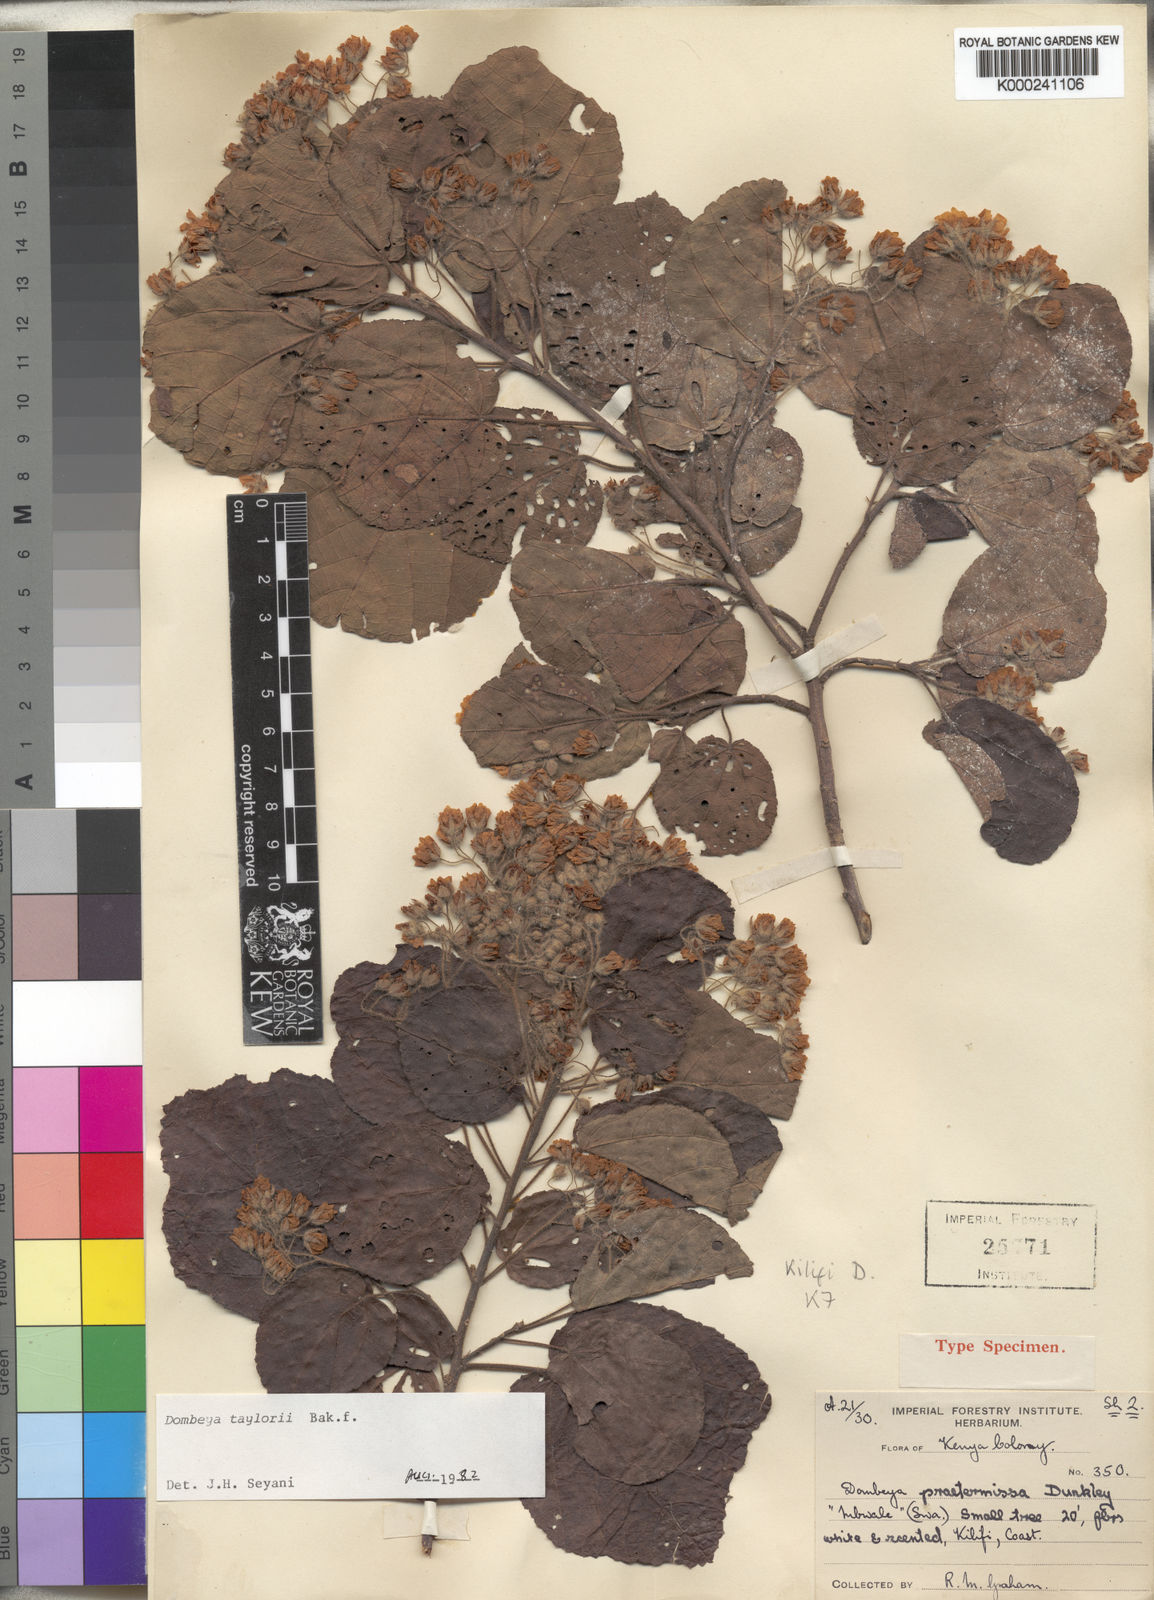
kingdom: Plantae
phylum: Tracheophyta
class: Magnoliopsida
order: Malvales
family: Malvaceae
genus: Dombeya
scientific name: Dombeya taylorii
